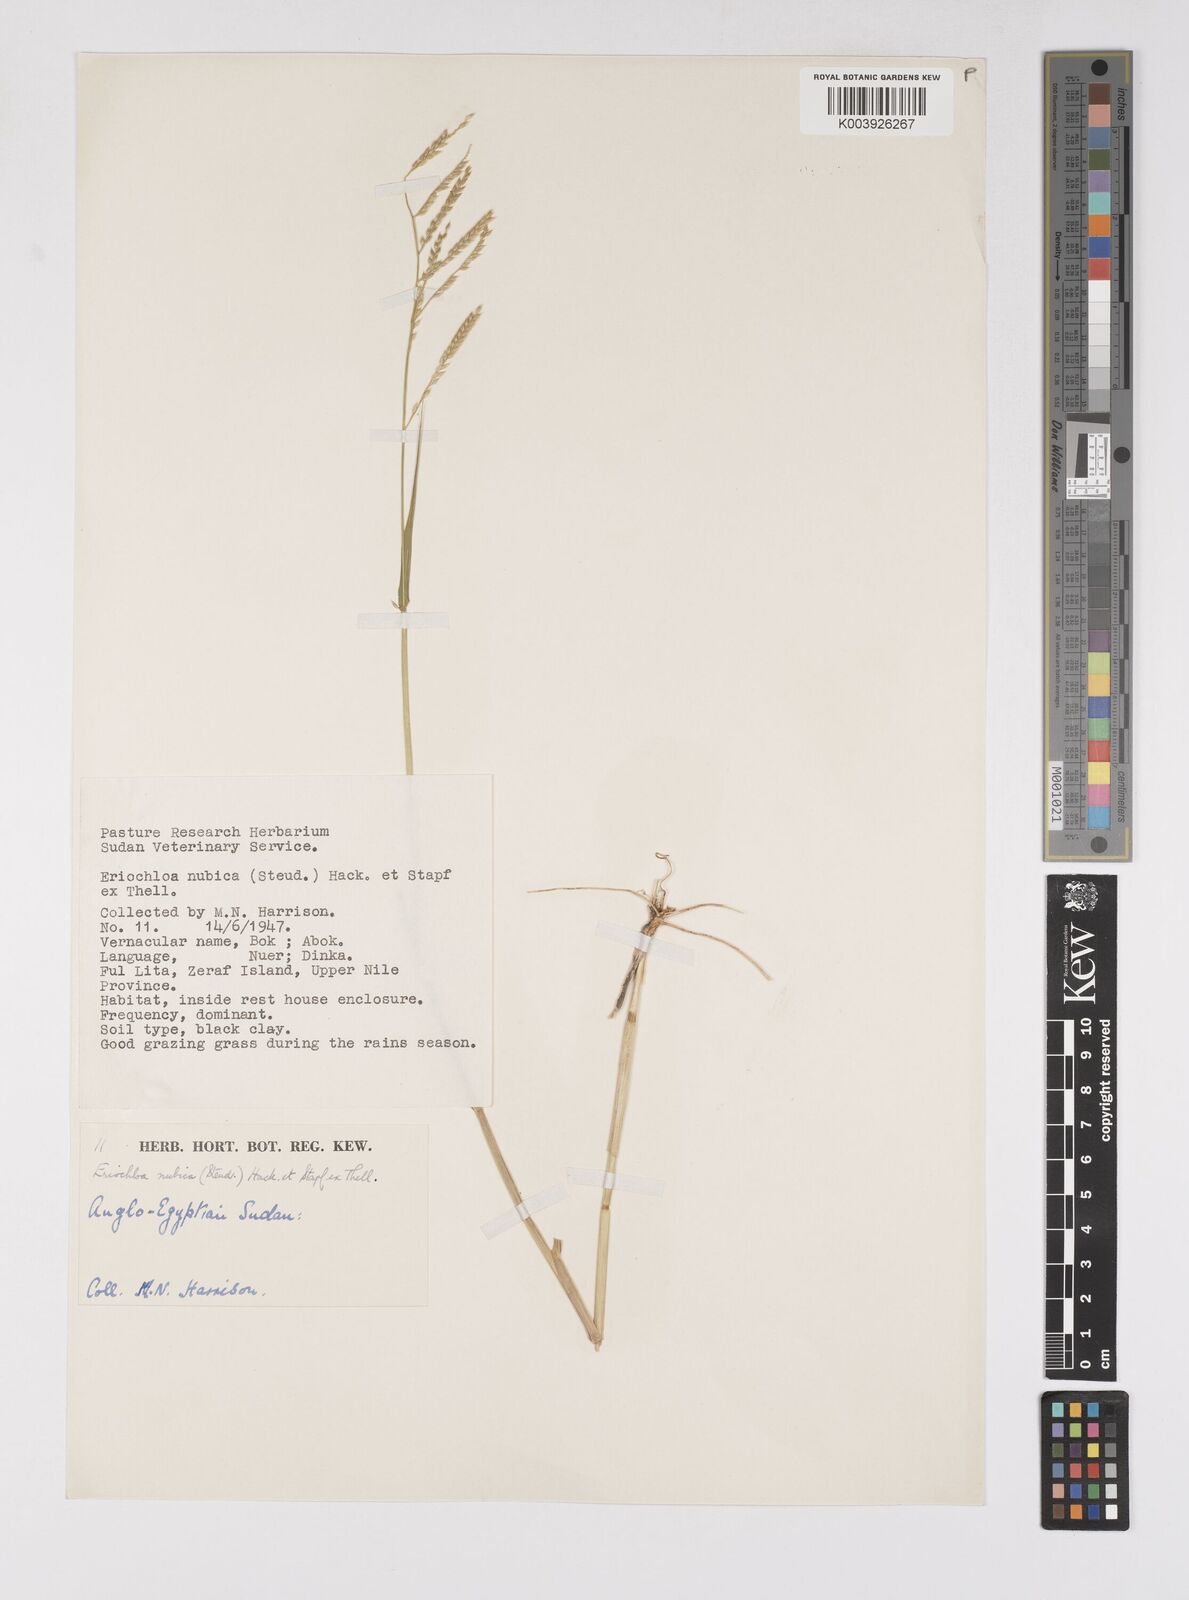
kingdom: Plantae
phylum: Tracheophyta
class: Liliopsida
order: Poales
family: Poaceae
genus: Eriochloa
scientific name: Eriochloa barbatus
